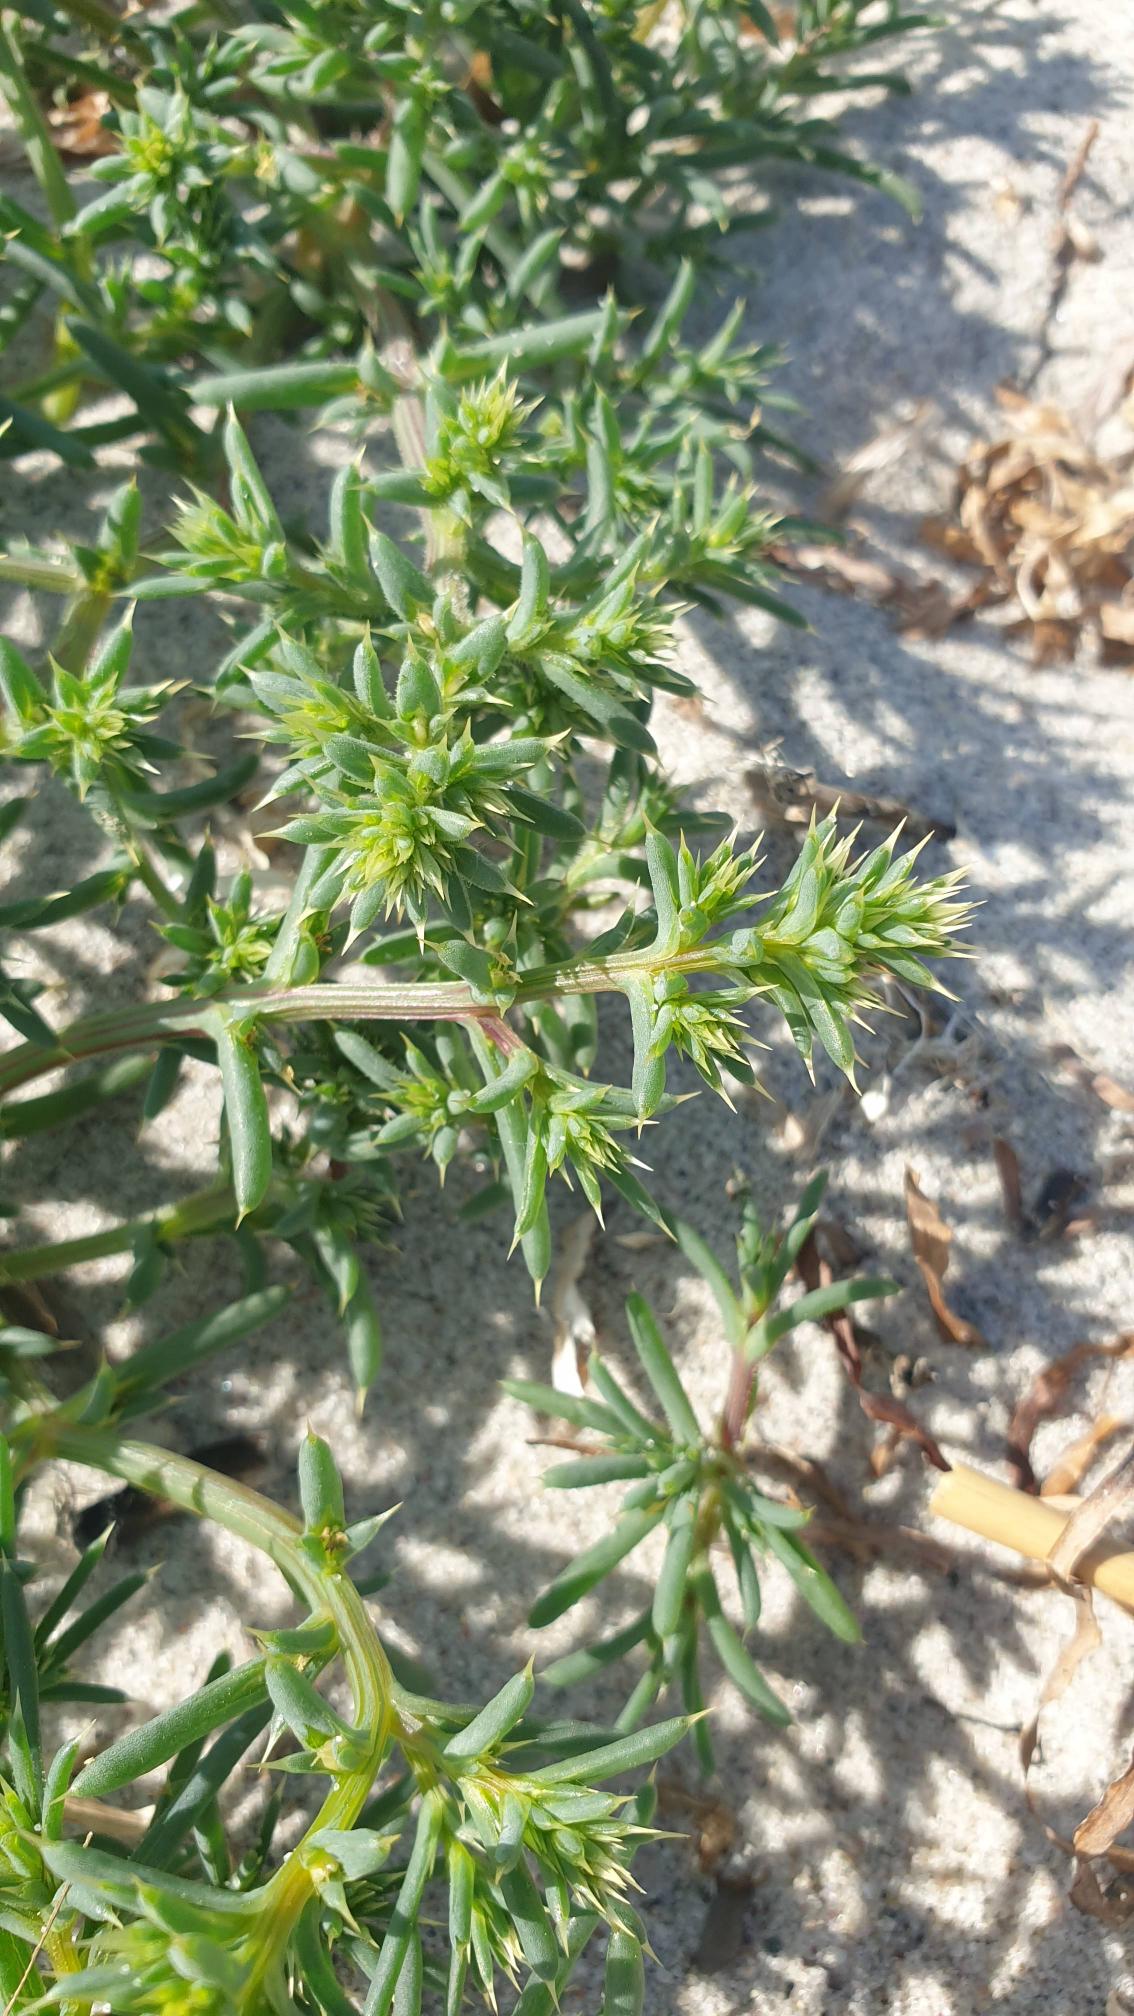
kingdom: Plantae
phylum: Tracheophyta
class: Magnoliopsida
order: Caryophyllales
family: Amaranthaceae
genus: Salsola
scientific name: Salsola kali
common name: Sodaurt
